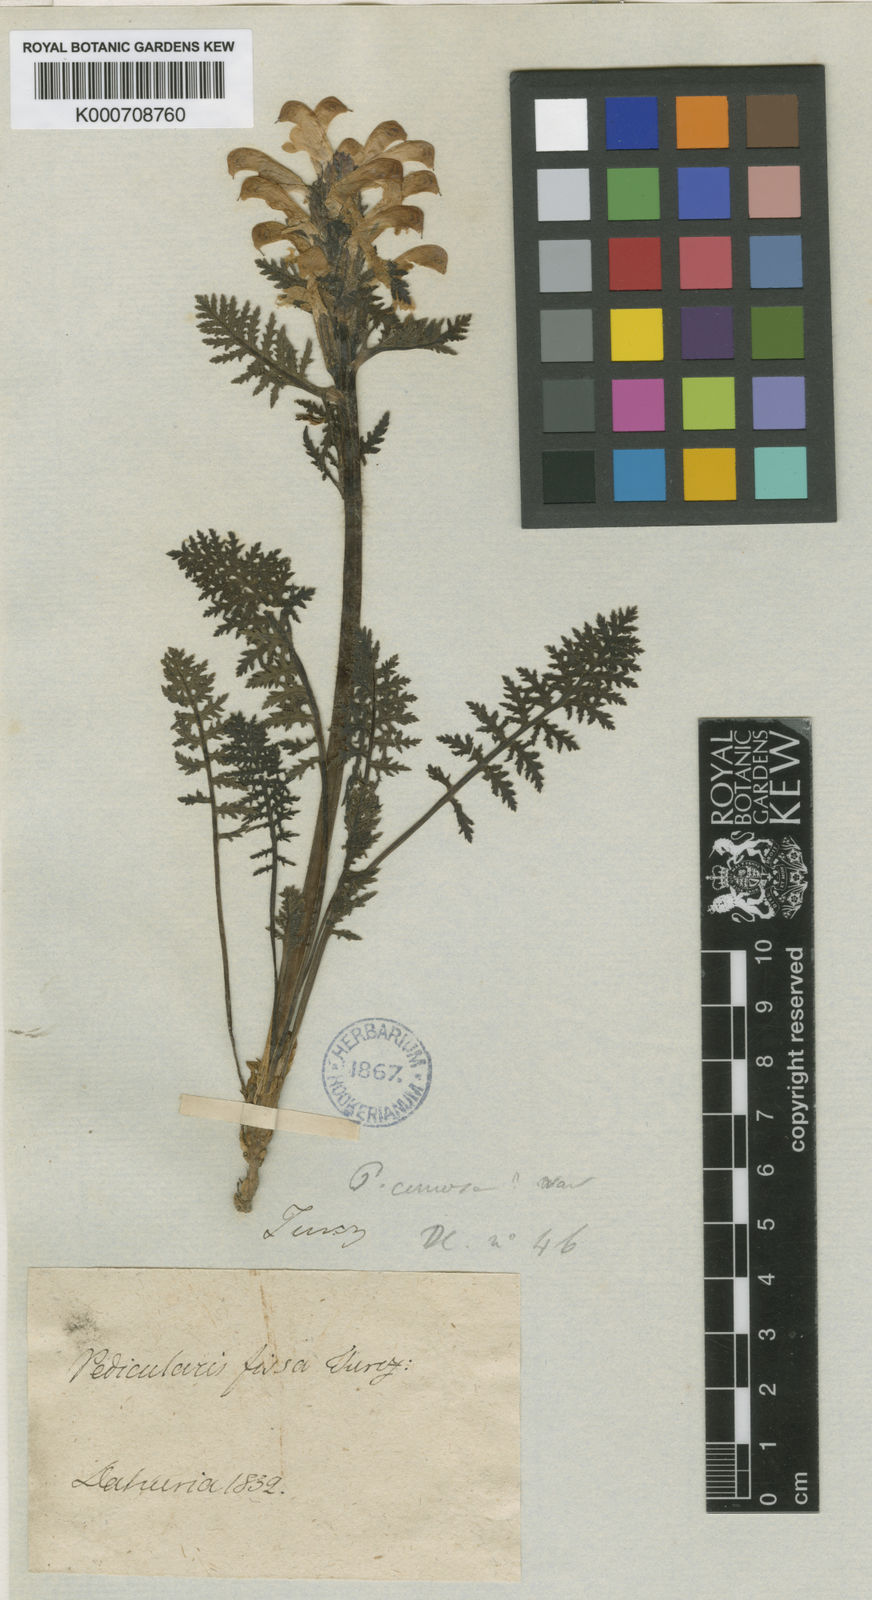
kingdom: Plantae
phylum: Tracheophyta
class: Magnoliopsida
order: Lamiales
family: Orobanchaceae
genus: Pedicularis
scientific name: Pedicularis fissa
